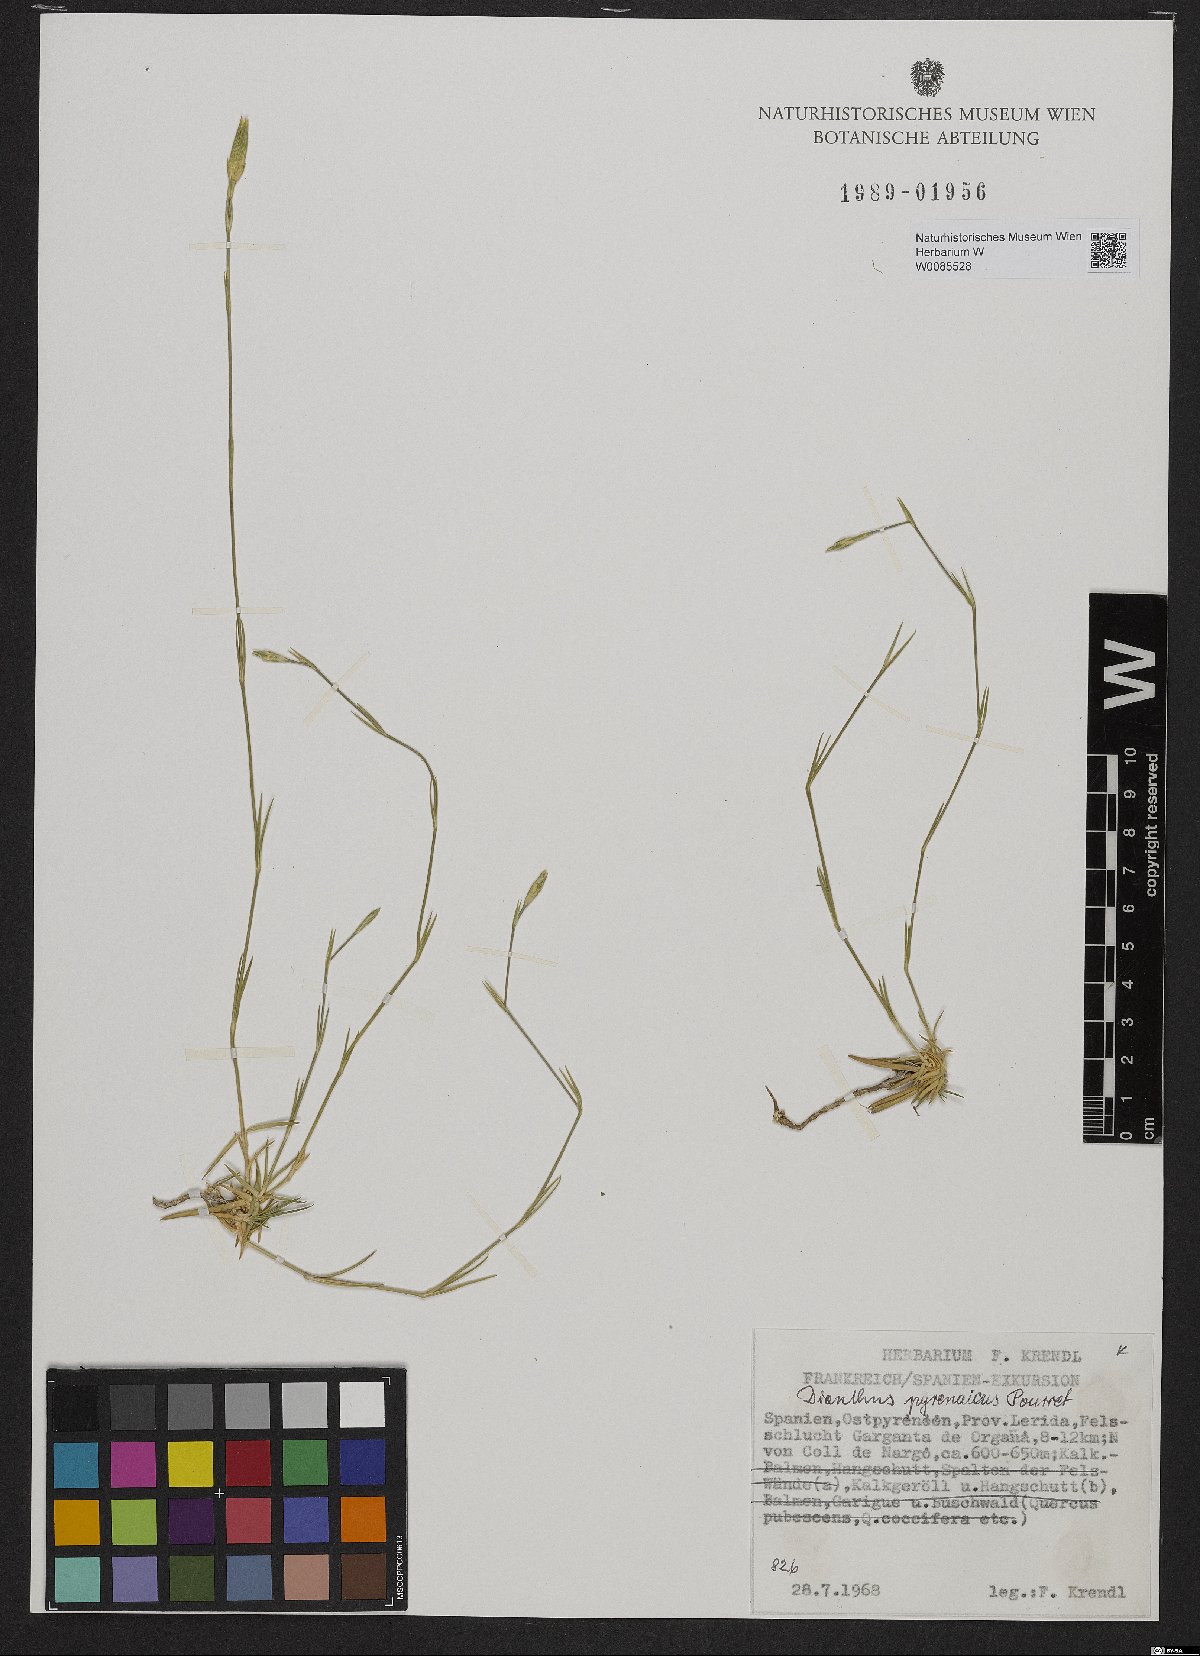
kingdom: Plantae
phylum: Tracheophyta
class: Magnoliopsida
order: Caryophyllales
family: Caryophyllaceae
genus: Dianthus
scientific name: Dianthus pyrenaicus
